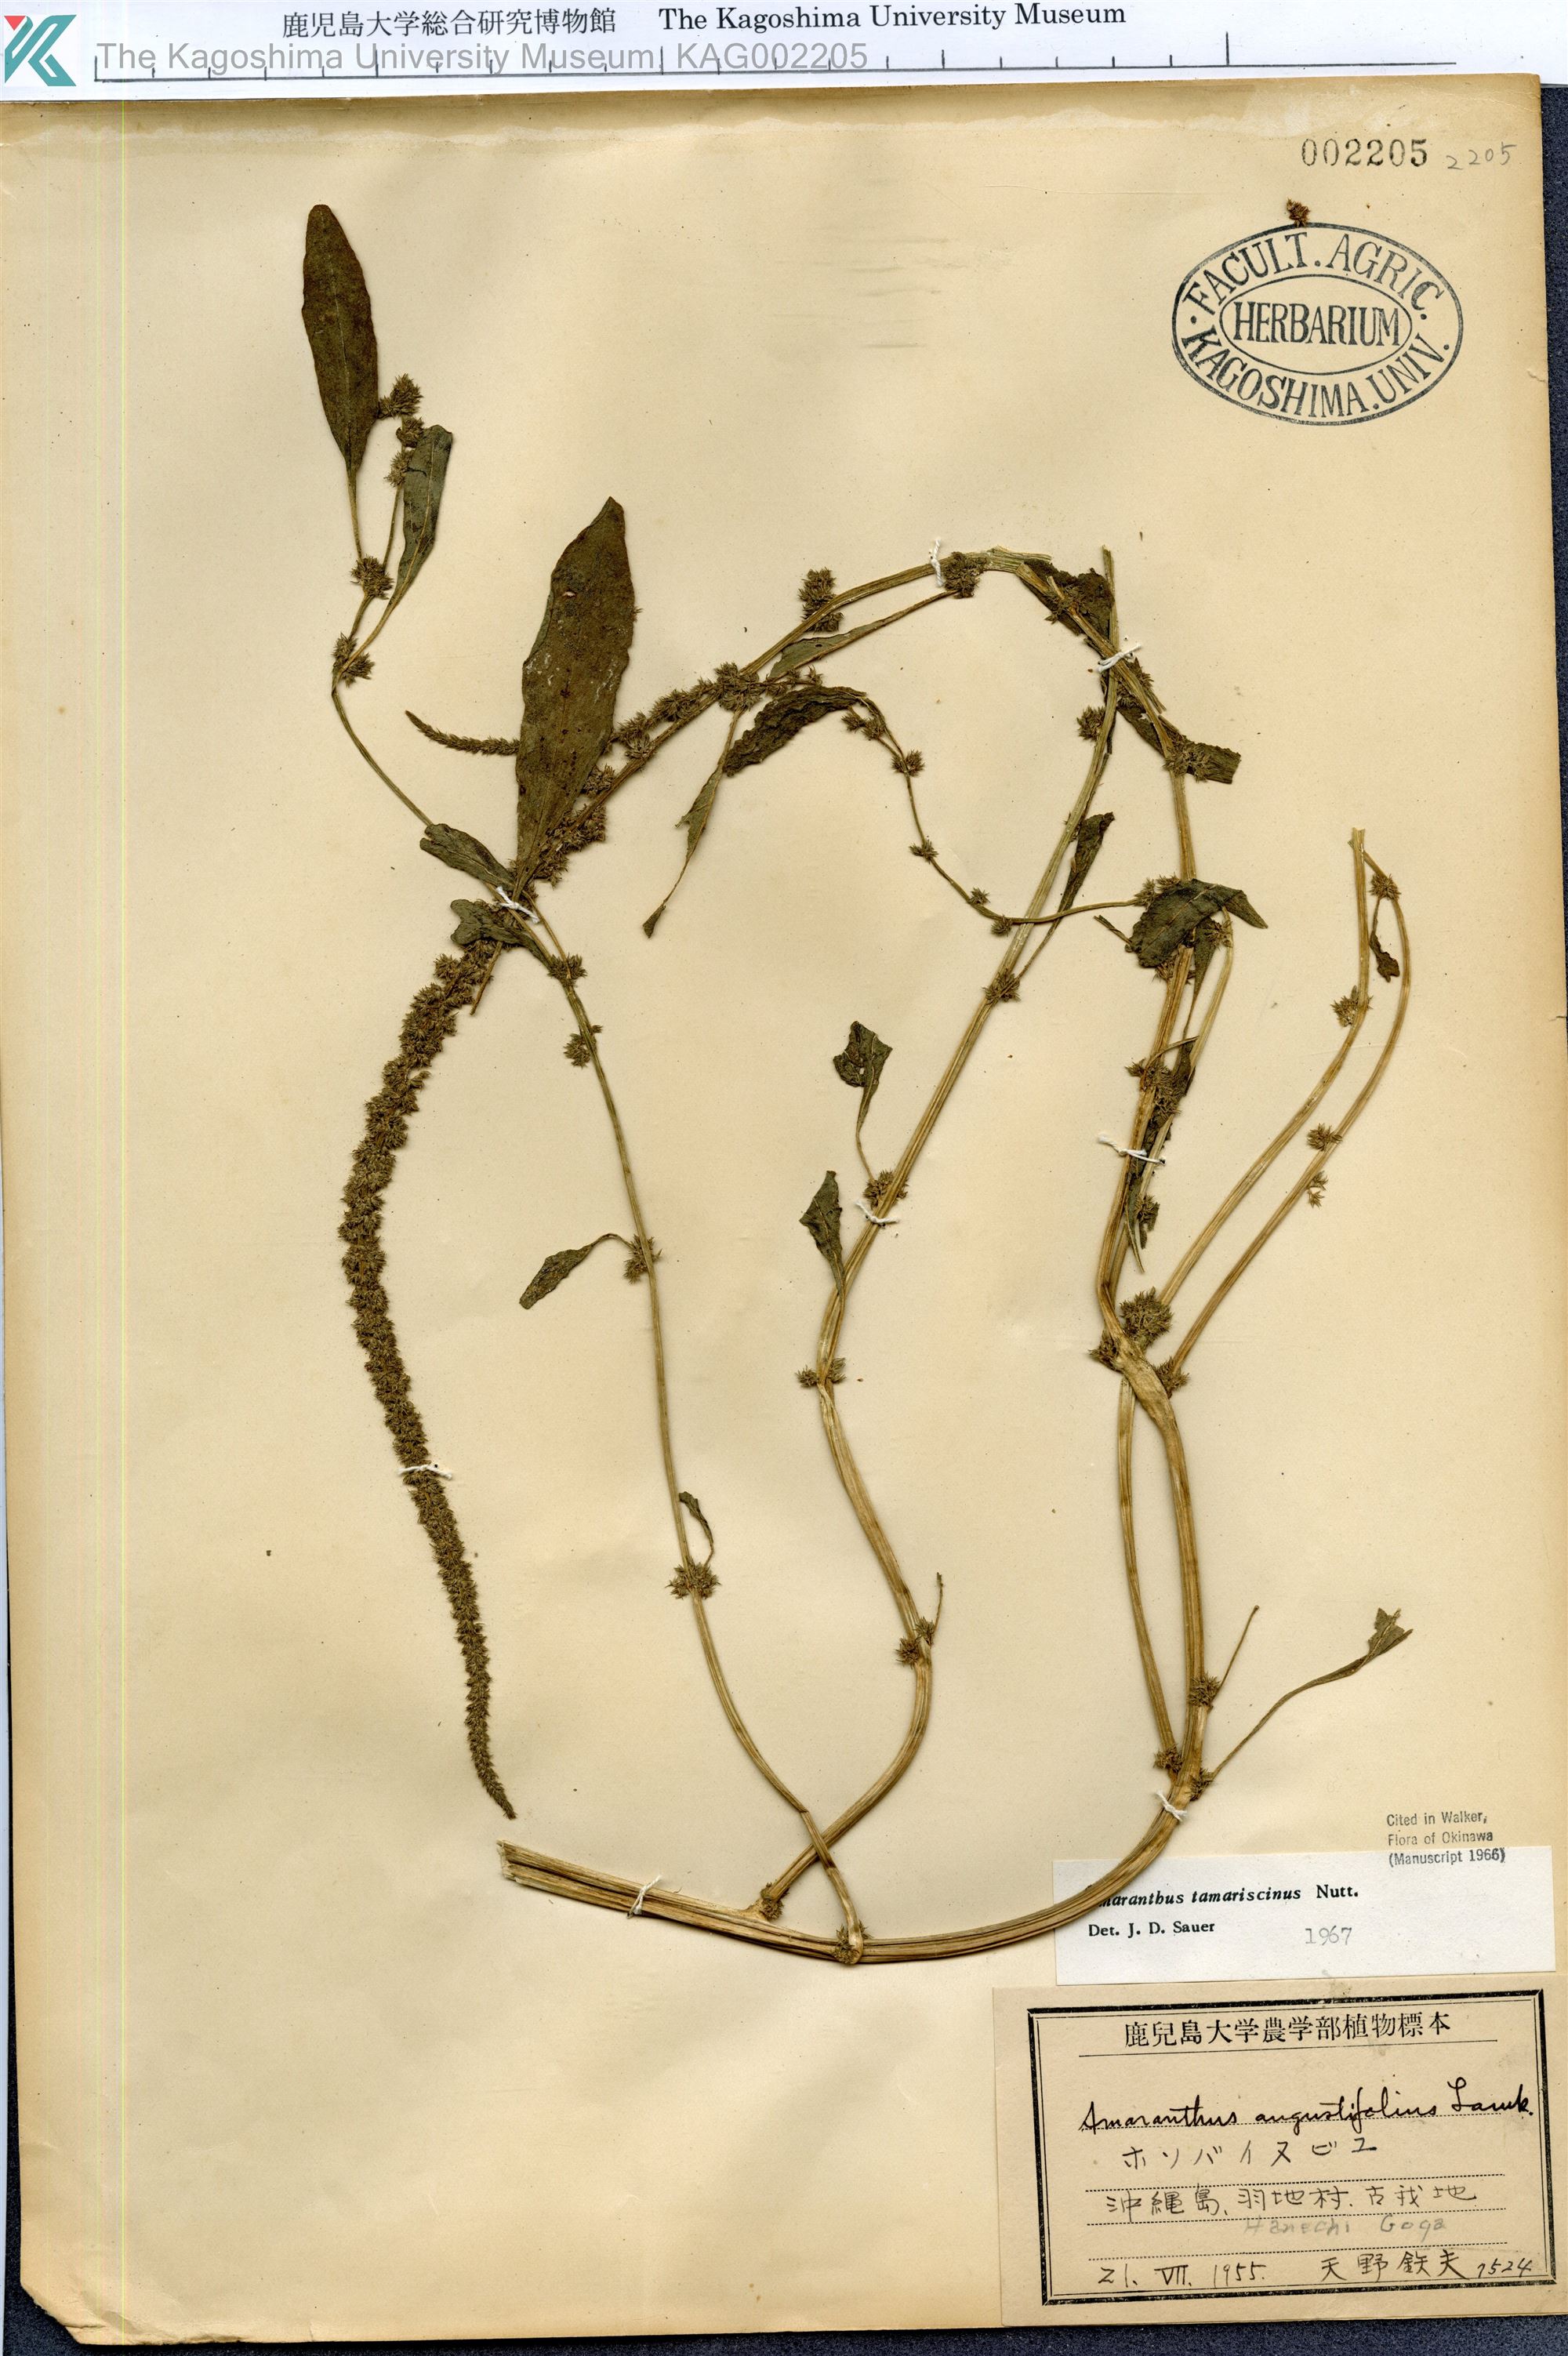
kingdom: Plantae
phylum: Tracheophyta
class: Magnoliopsida
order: Caryophyllales
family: Amaranthaceae
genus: Amaranthus
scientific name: Amaranthus tamariscinus
